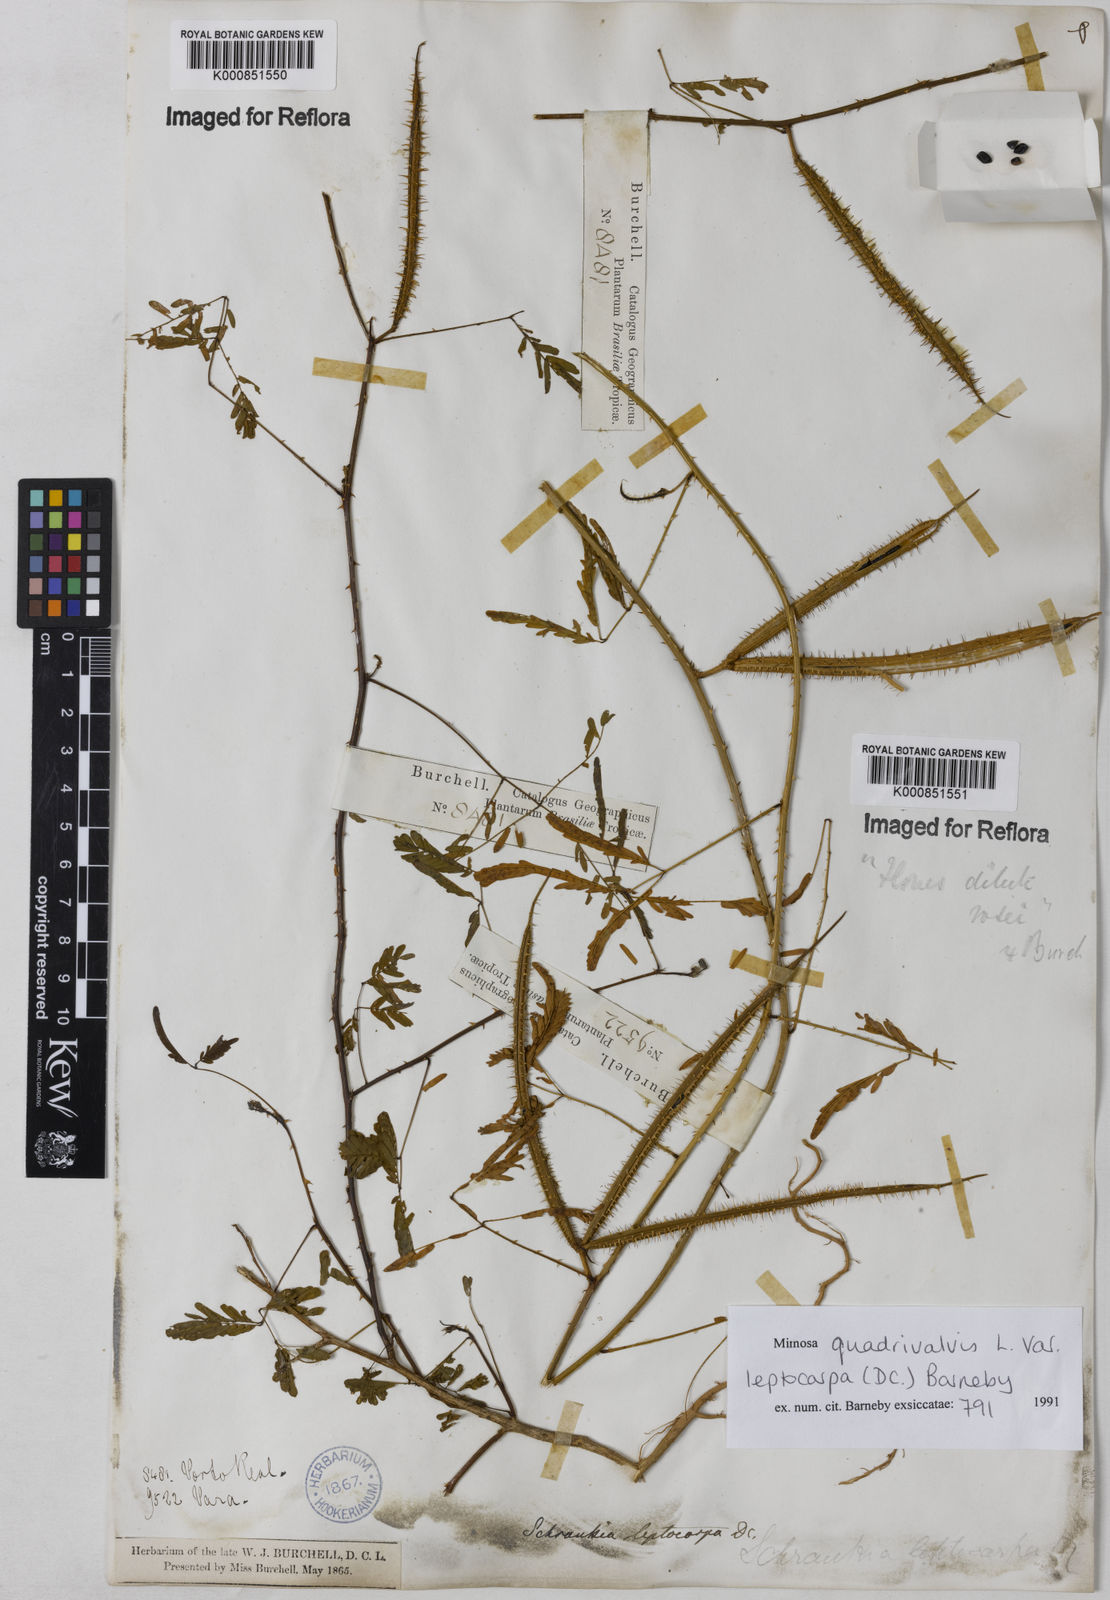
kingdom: Plantae
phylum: Tracheophyta
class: Magnoliopsida
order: Fabales
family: Fabaceae
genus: Mimosa
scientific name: Mimosa candollei
